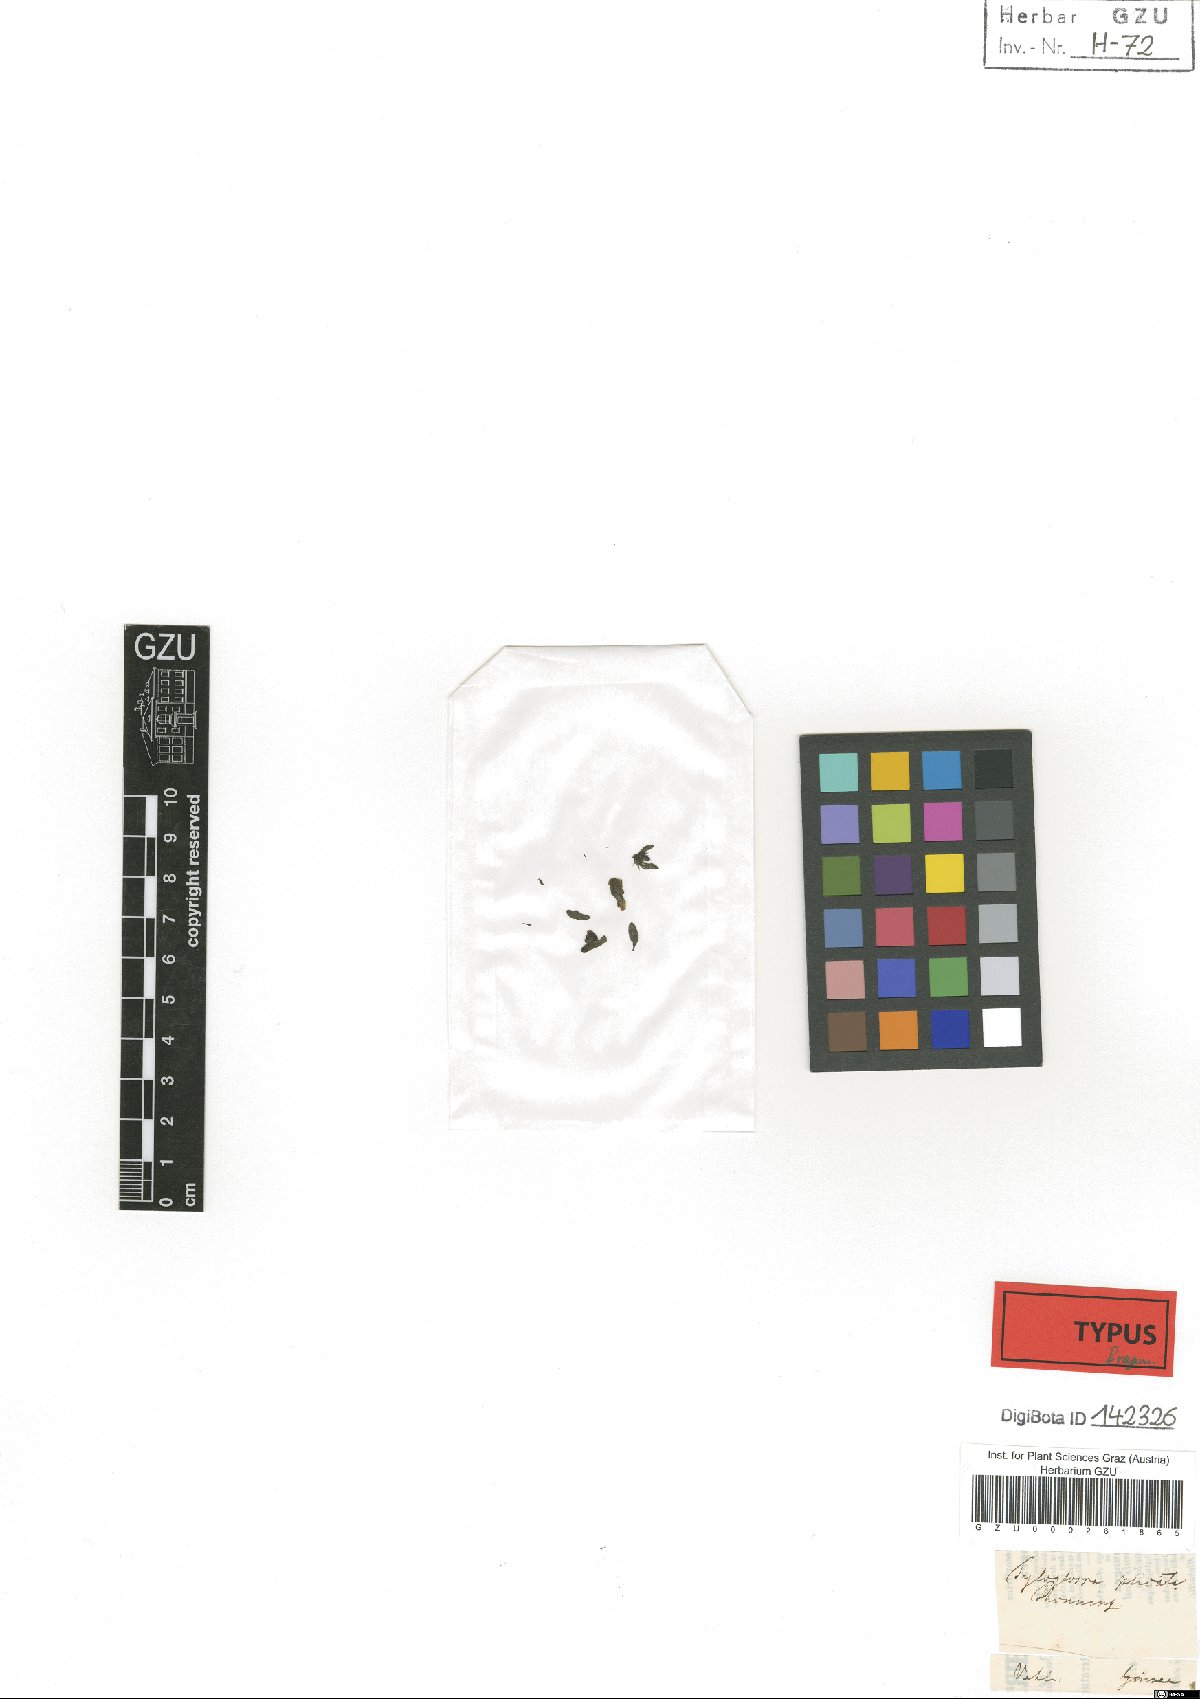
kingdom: Plantae
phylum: Tracheophyta
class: Magnoliopsida
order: Lamiales
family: Acanthaceae
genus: Justicia
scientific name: Justicia flava
